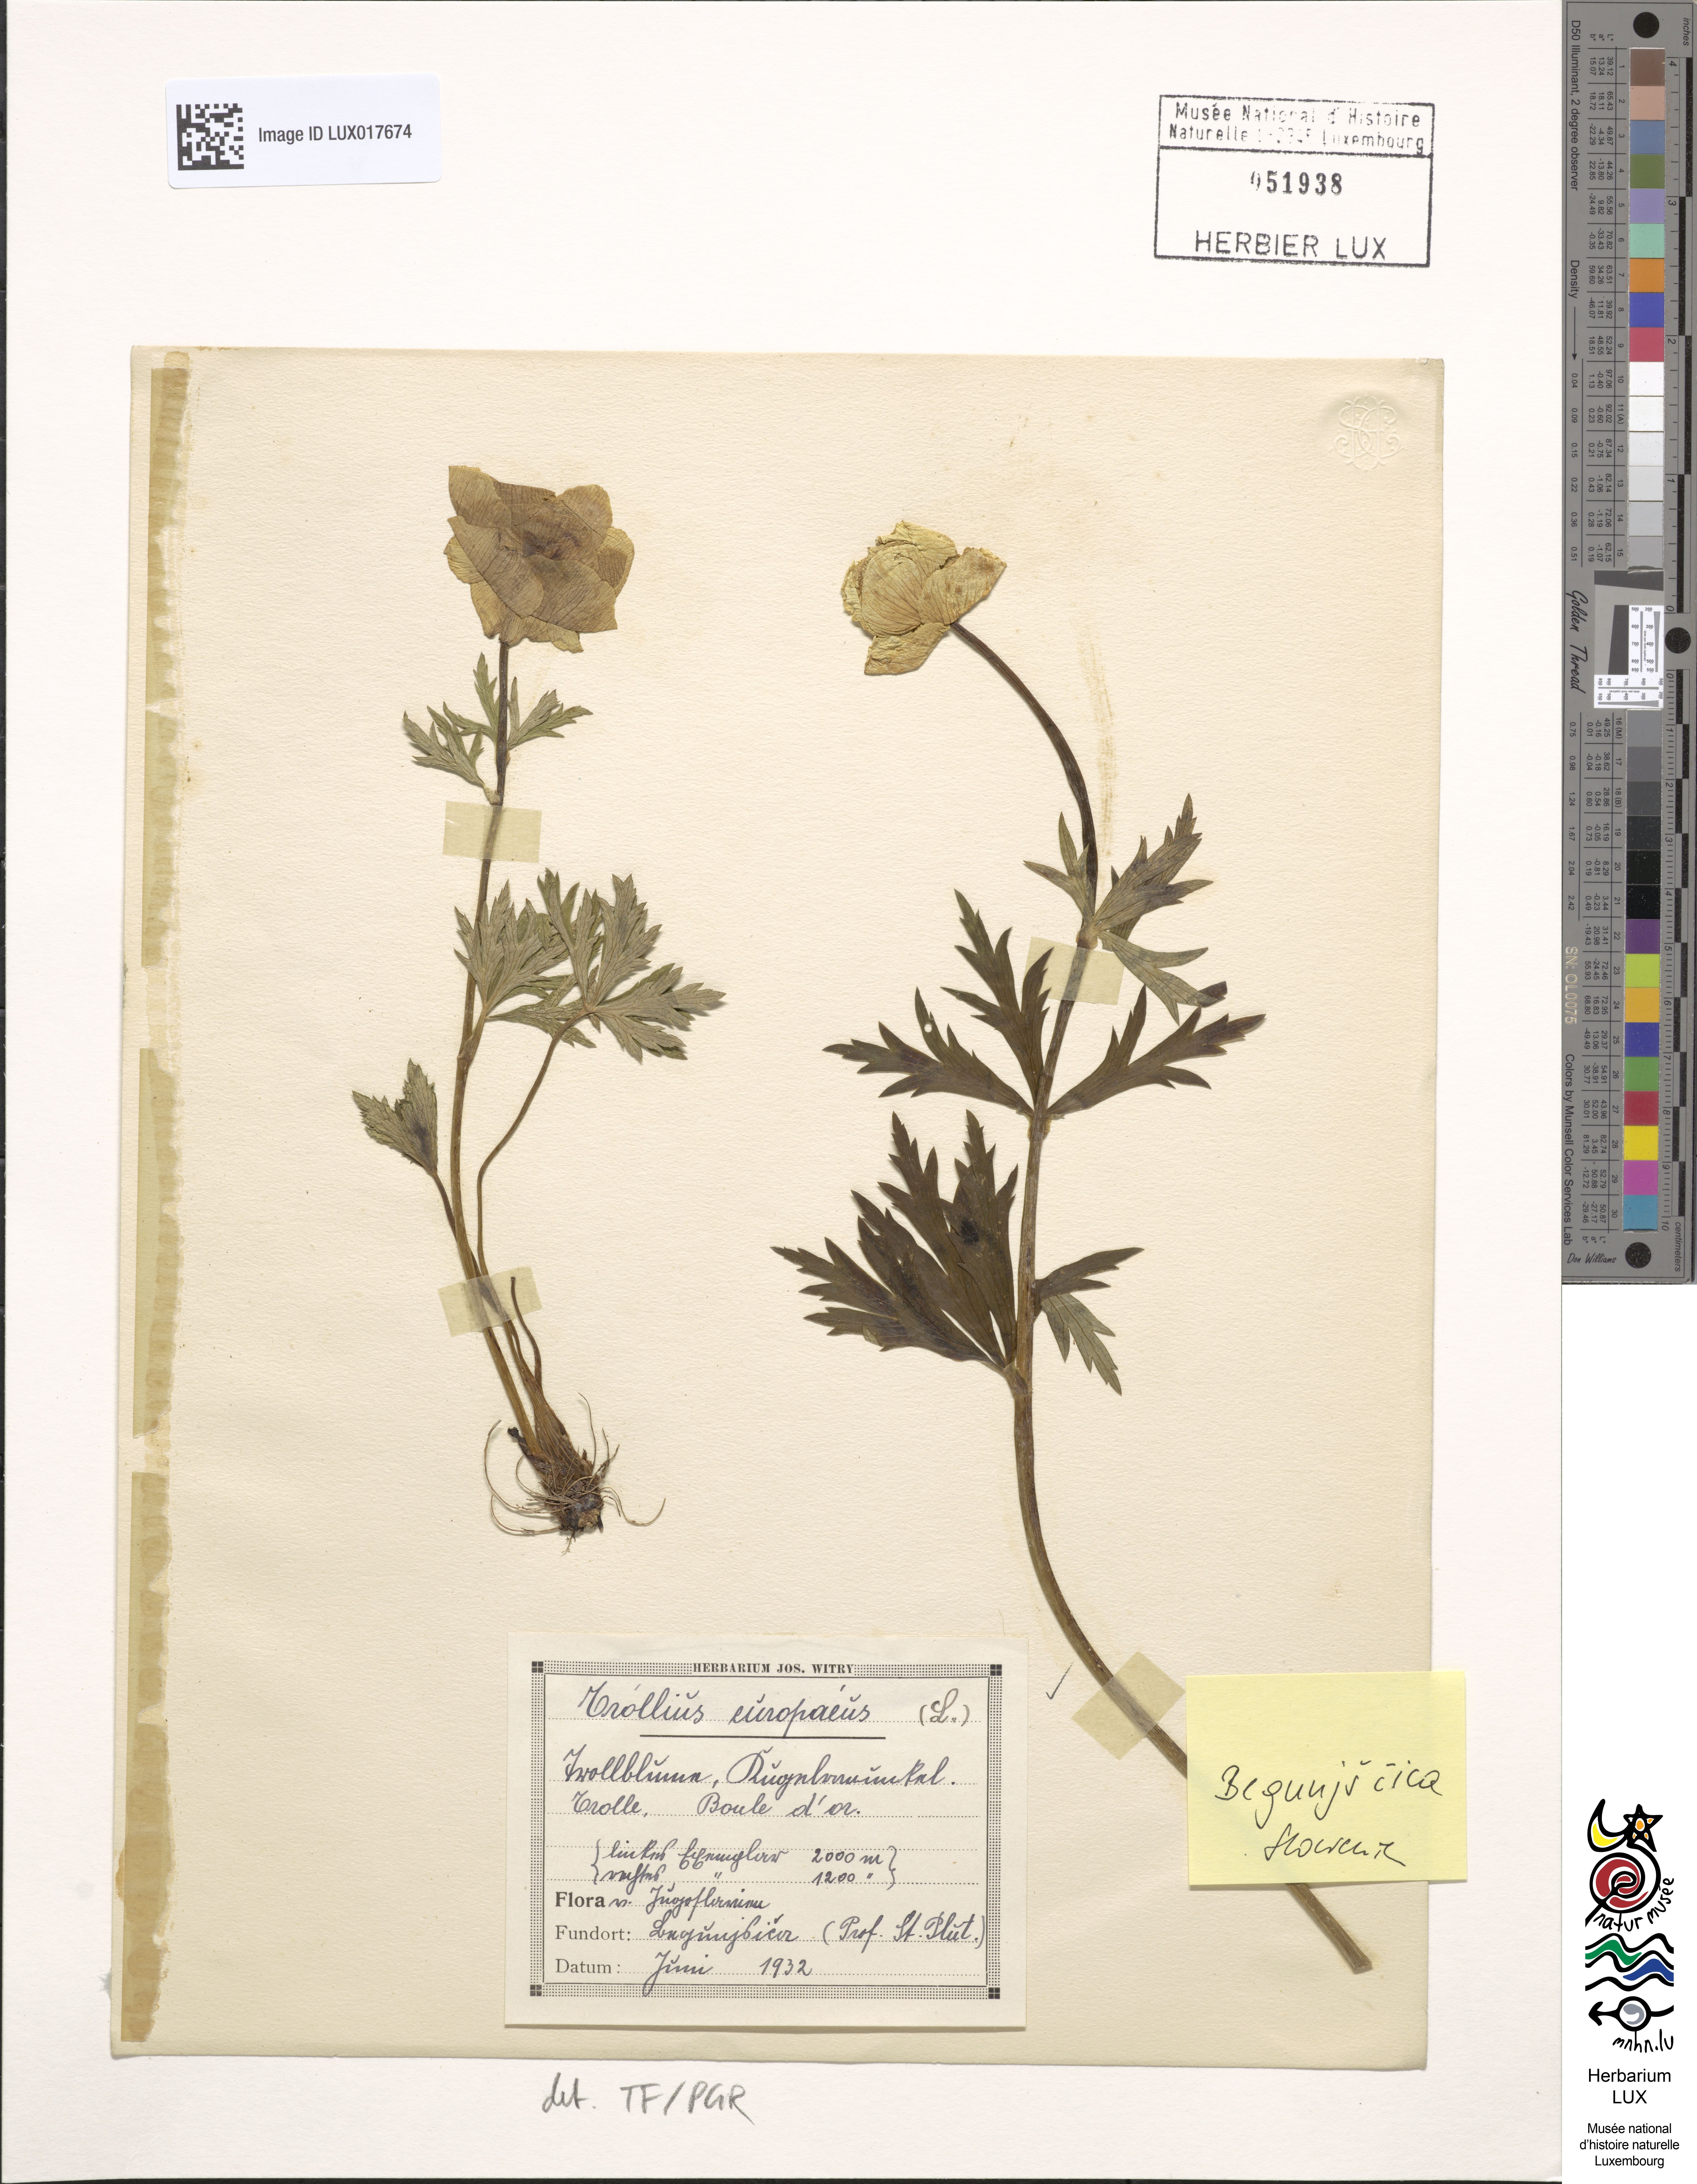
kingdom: Plantae
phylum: Tracheophyta
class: Magnoliopsida
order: Ranunculales
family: Ranunculaceae
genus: Trollius
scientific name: Trollius europaeus
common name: European globeflower
